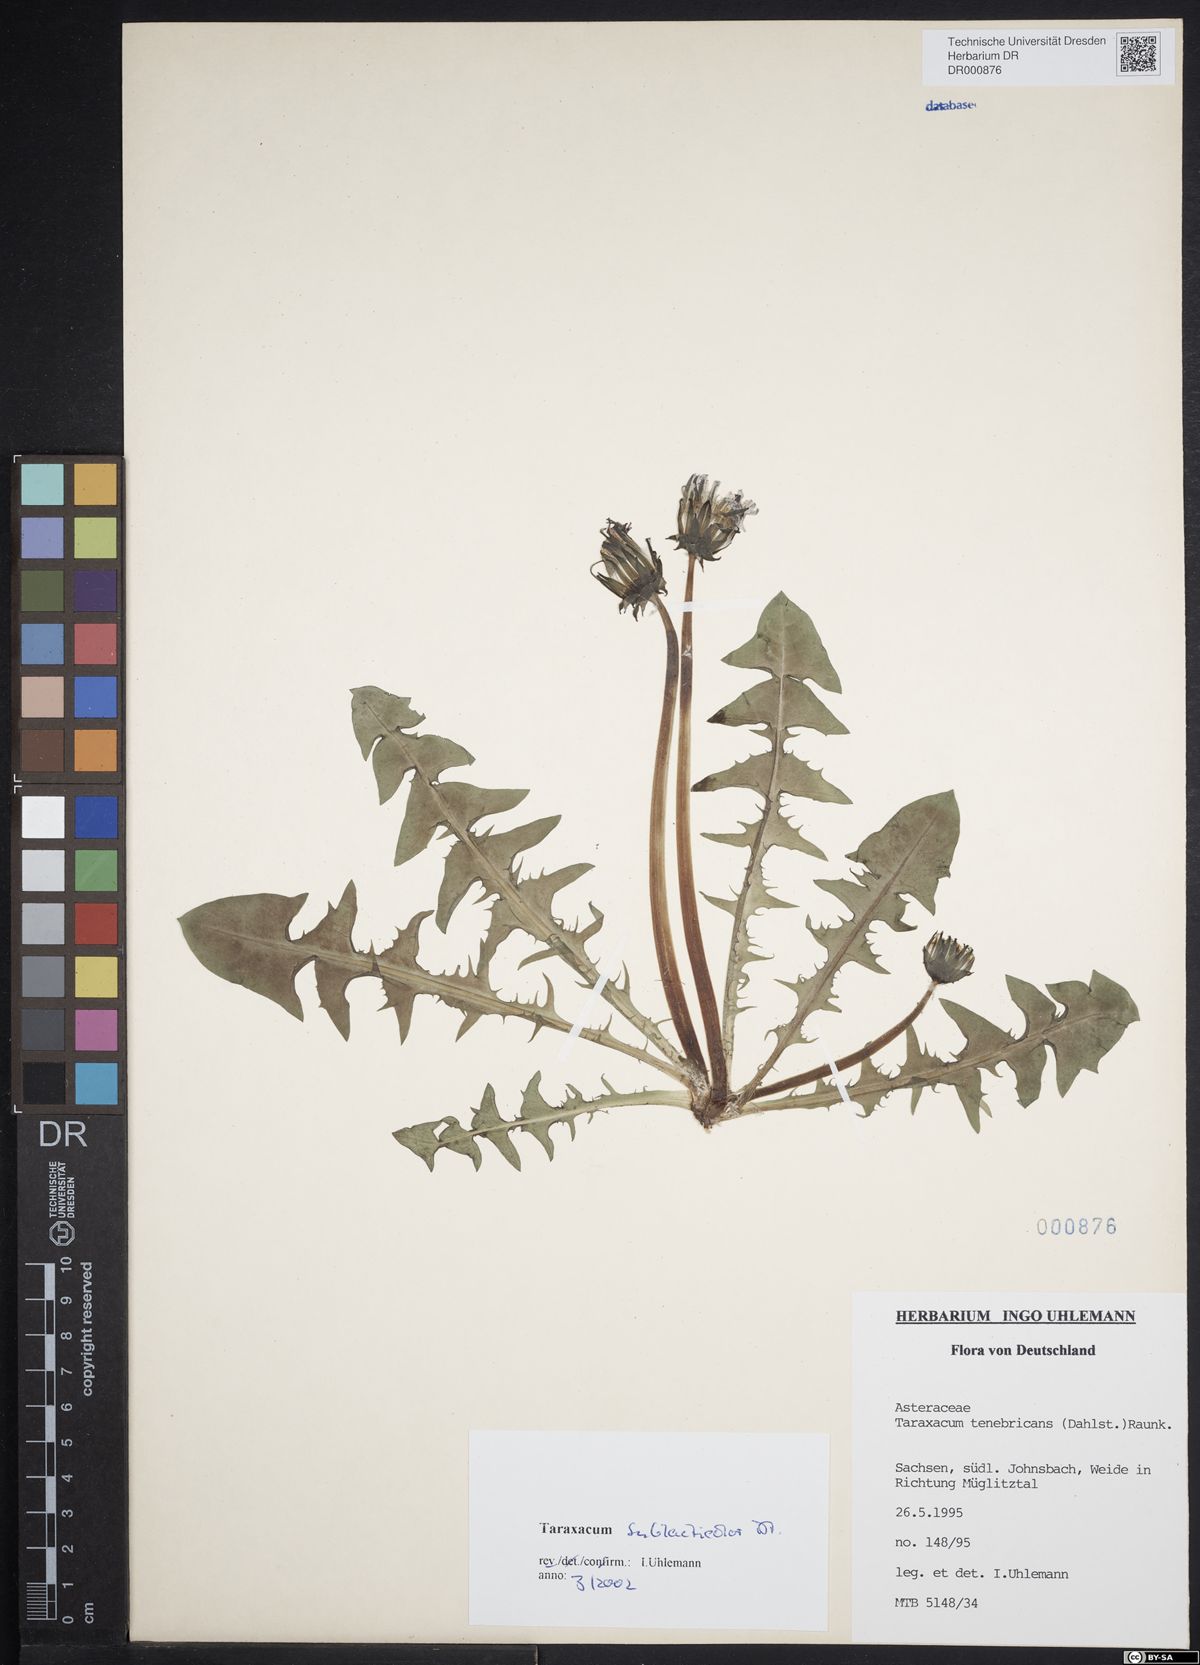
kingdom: Plantae
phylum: Tracheophyta
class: Magnoliopsida
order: Asterales
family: Asteraceae
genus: Taraxacum
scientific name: Taraxacum sublaeticolor
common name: Small-headed dandelion
